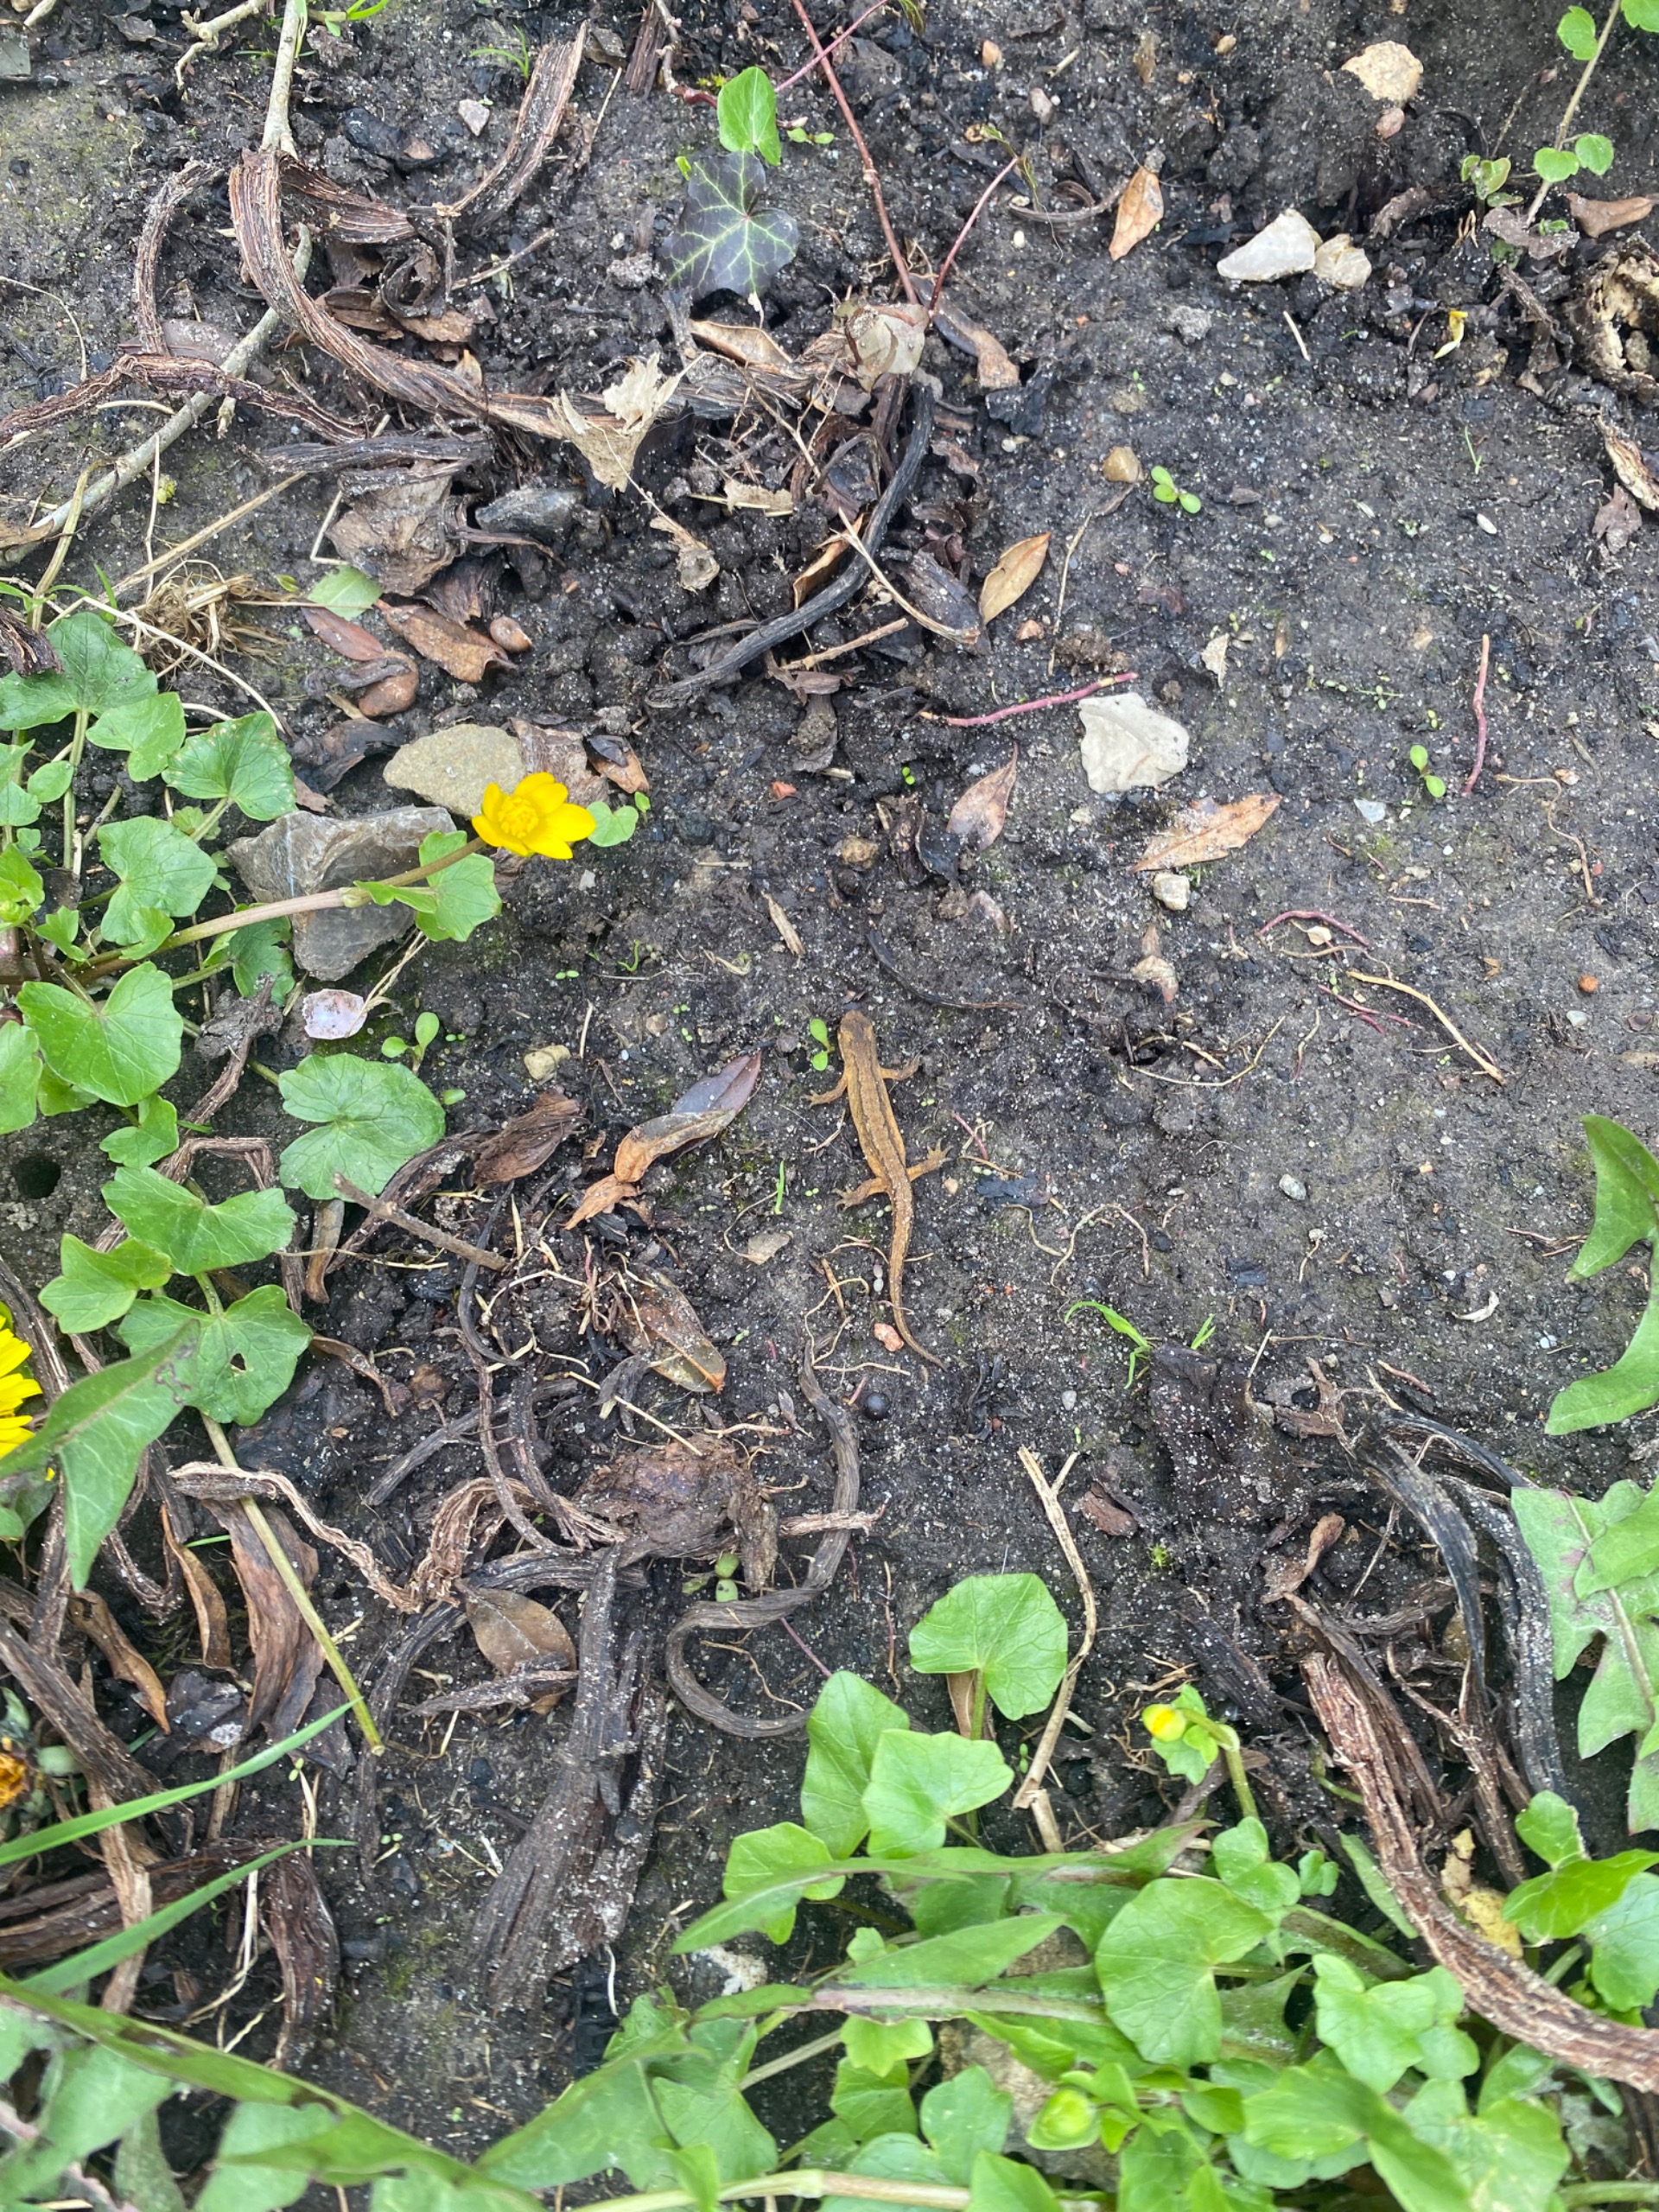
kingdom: Animalia
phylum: Chordata
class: Amphibia
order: Caudata
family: Salamandridae
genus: Lissotriton
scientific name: Lissotriton vulgaris
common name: Lille vandsalamander
